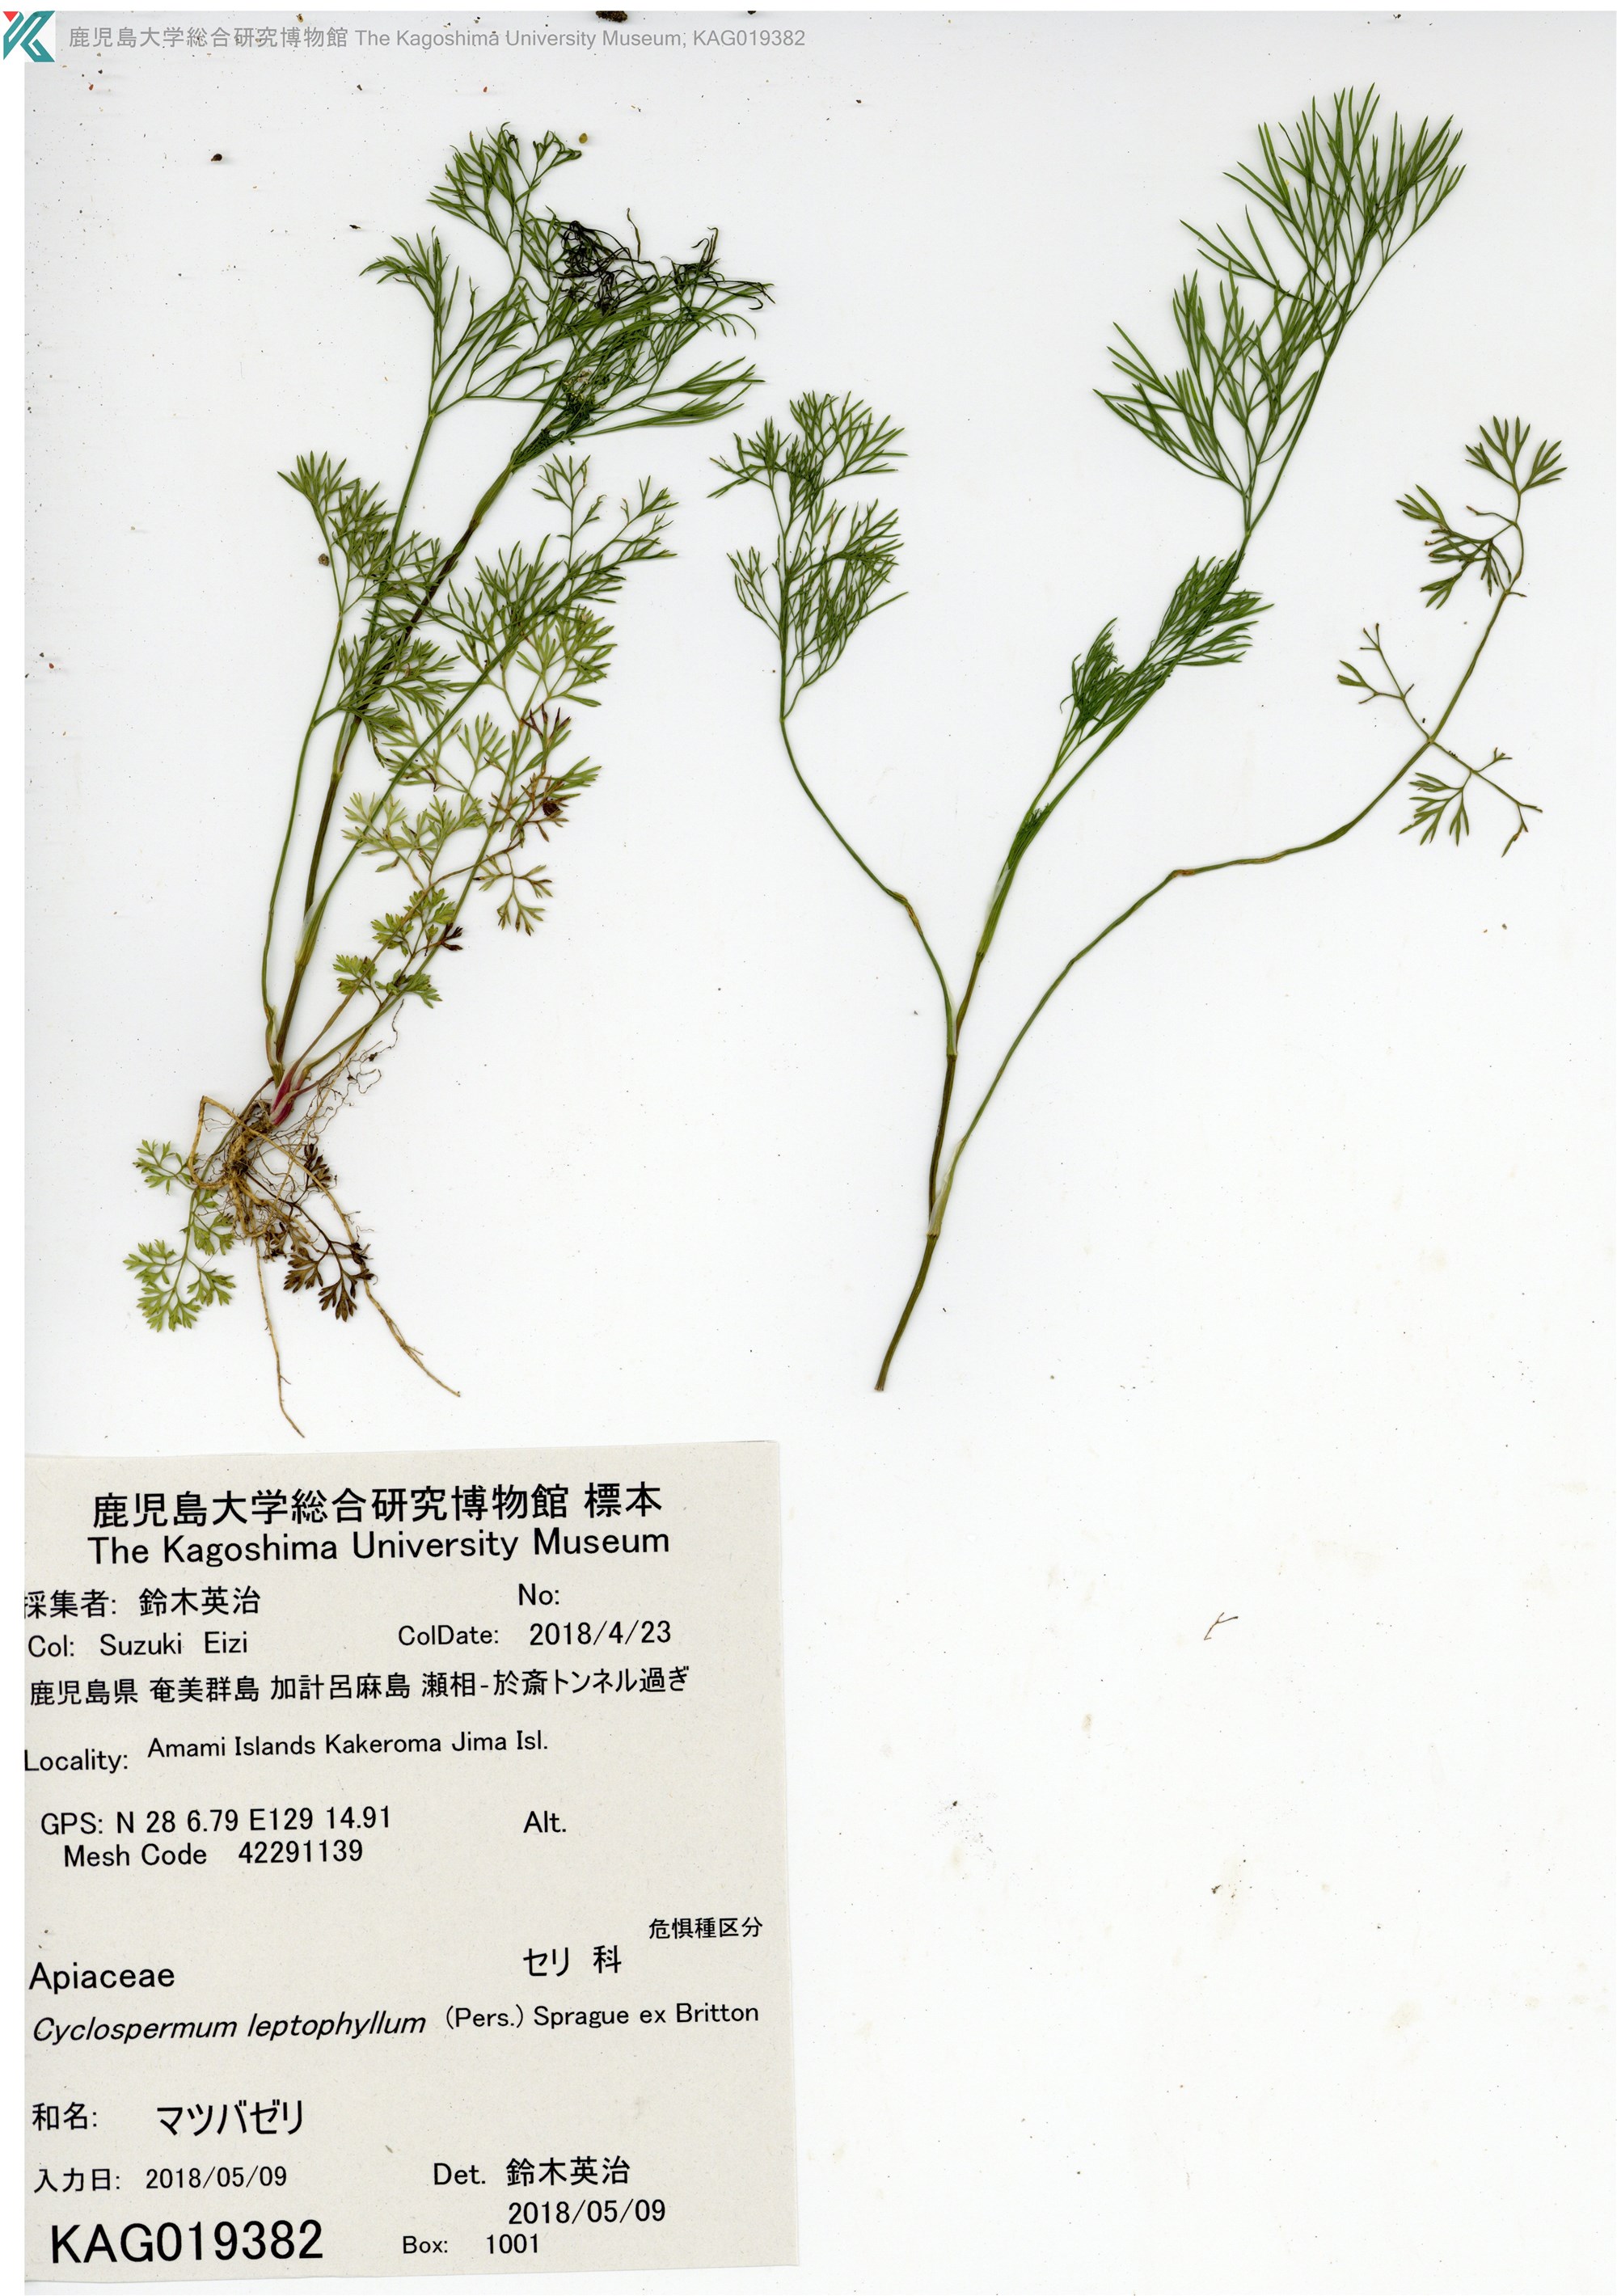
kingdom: Plantae
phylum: Tracheophyta
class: Magnoliopsida
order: Apiales
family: Apiaceae
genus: Cyclospermum
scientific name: Cyclospermum leptophyllum
